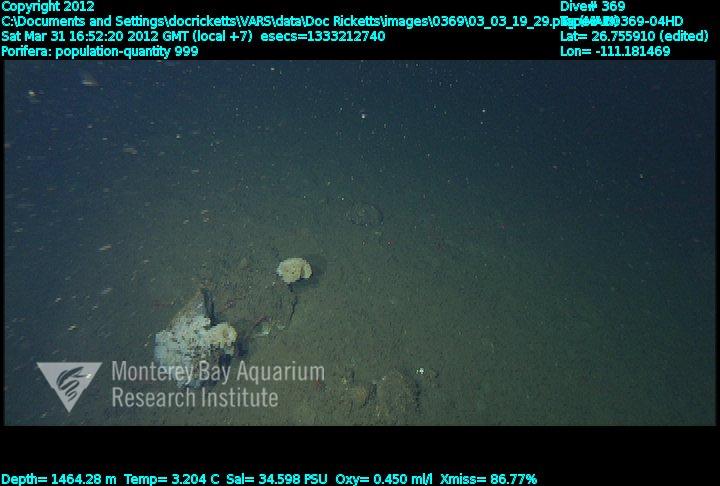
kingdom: Animalia
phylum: Porifera
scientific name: Porifera
